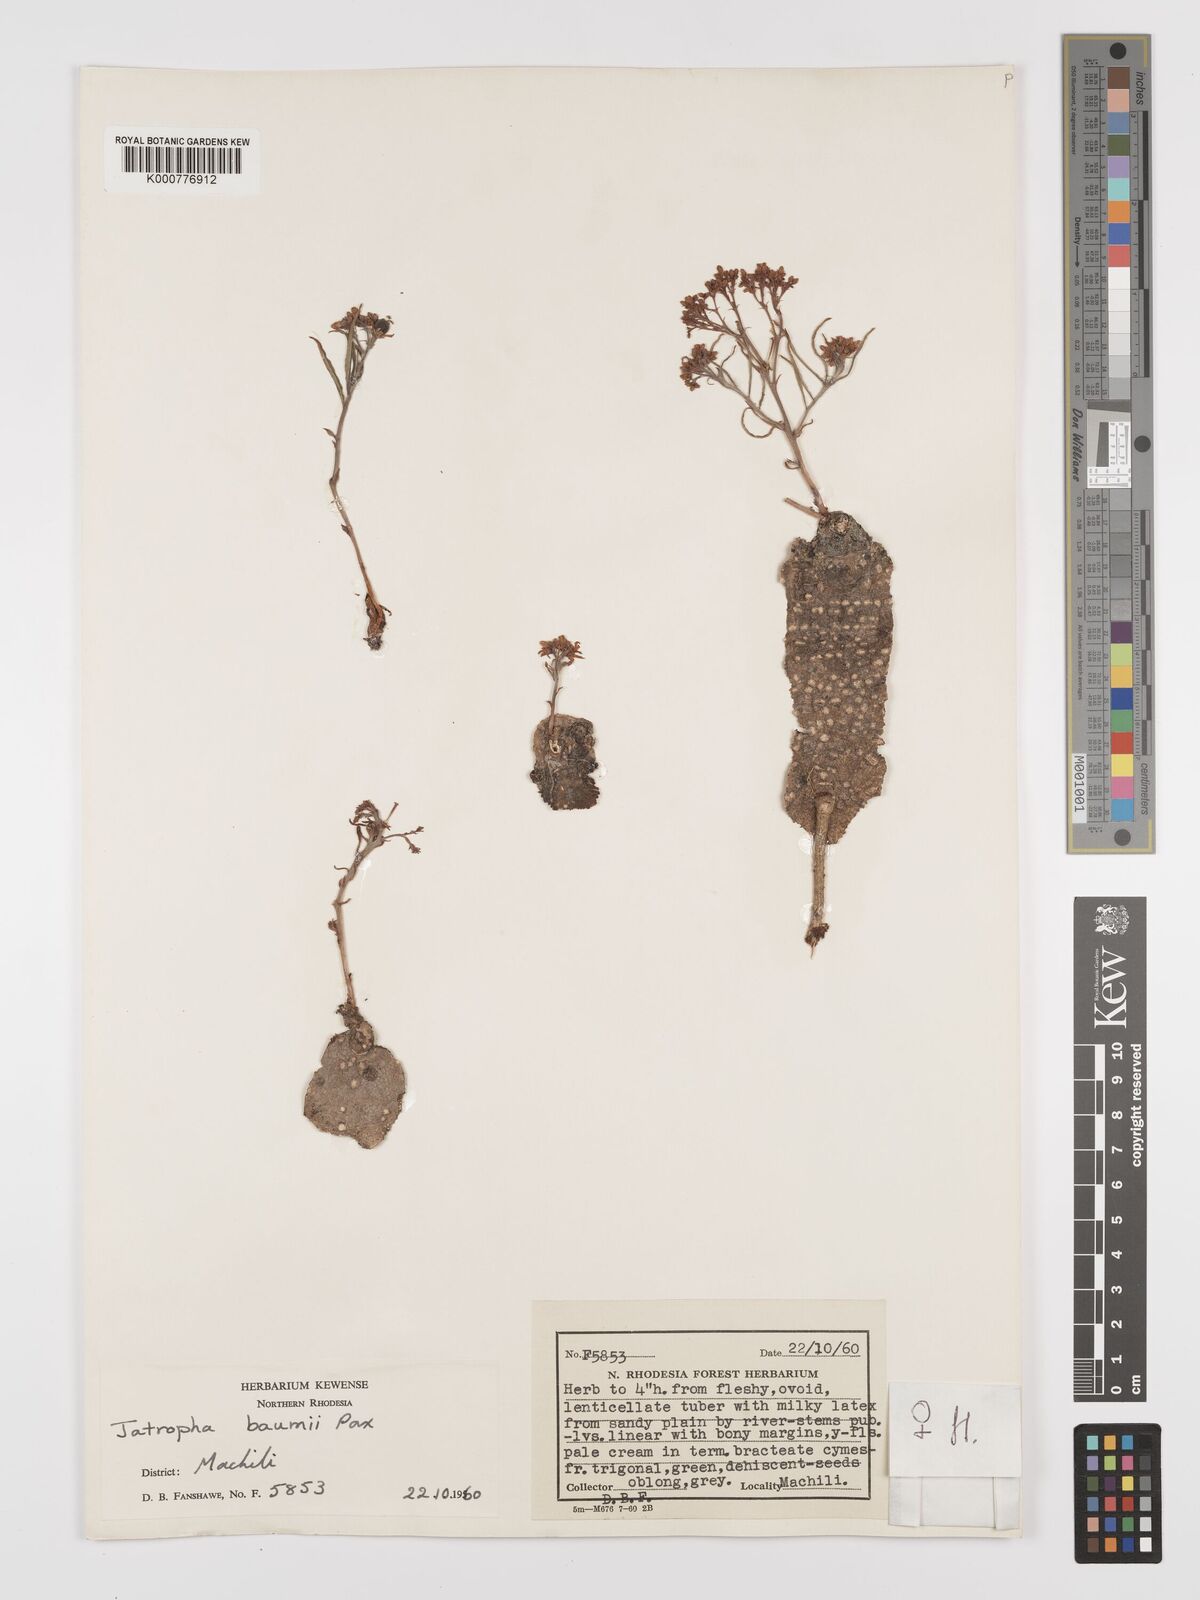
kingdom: Plantae
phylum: Tracheophyta
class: Magnoliopsida
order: Malpighiales
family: Euphorbiaceae
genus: Jatropha
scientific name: Jatropha baumii
